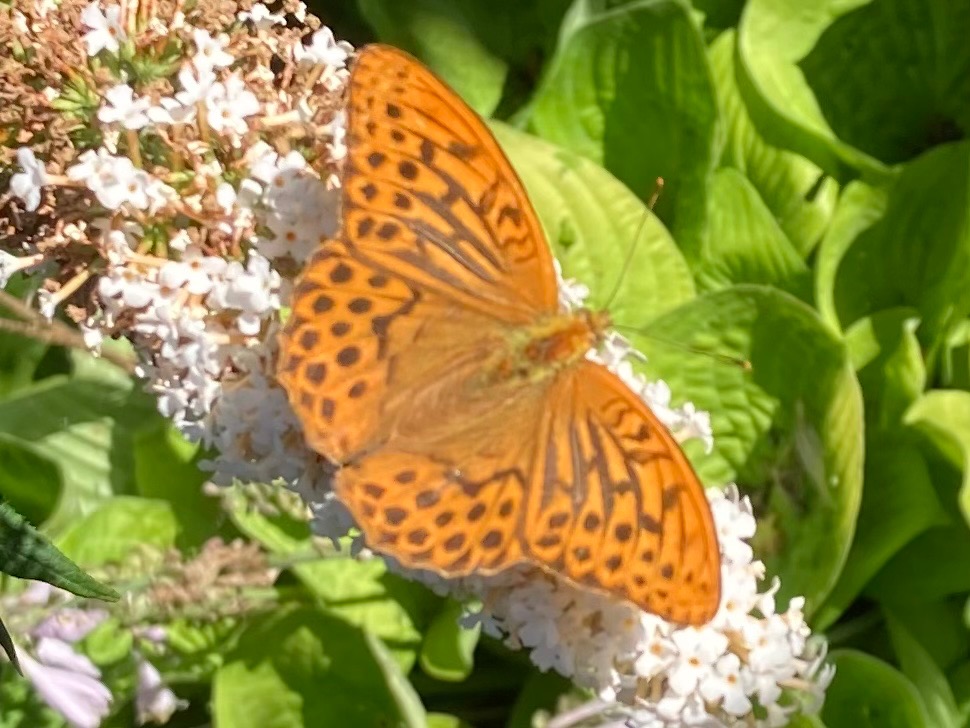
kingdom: Animalia
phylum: Arthropoda
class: Insecta
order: Lepidoptera
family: Nymphalidae
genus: Argynnis
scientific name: Argynnis paphia
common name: Kejserkåbe
